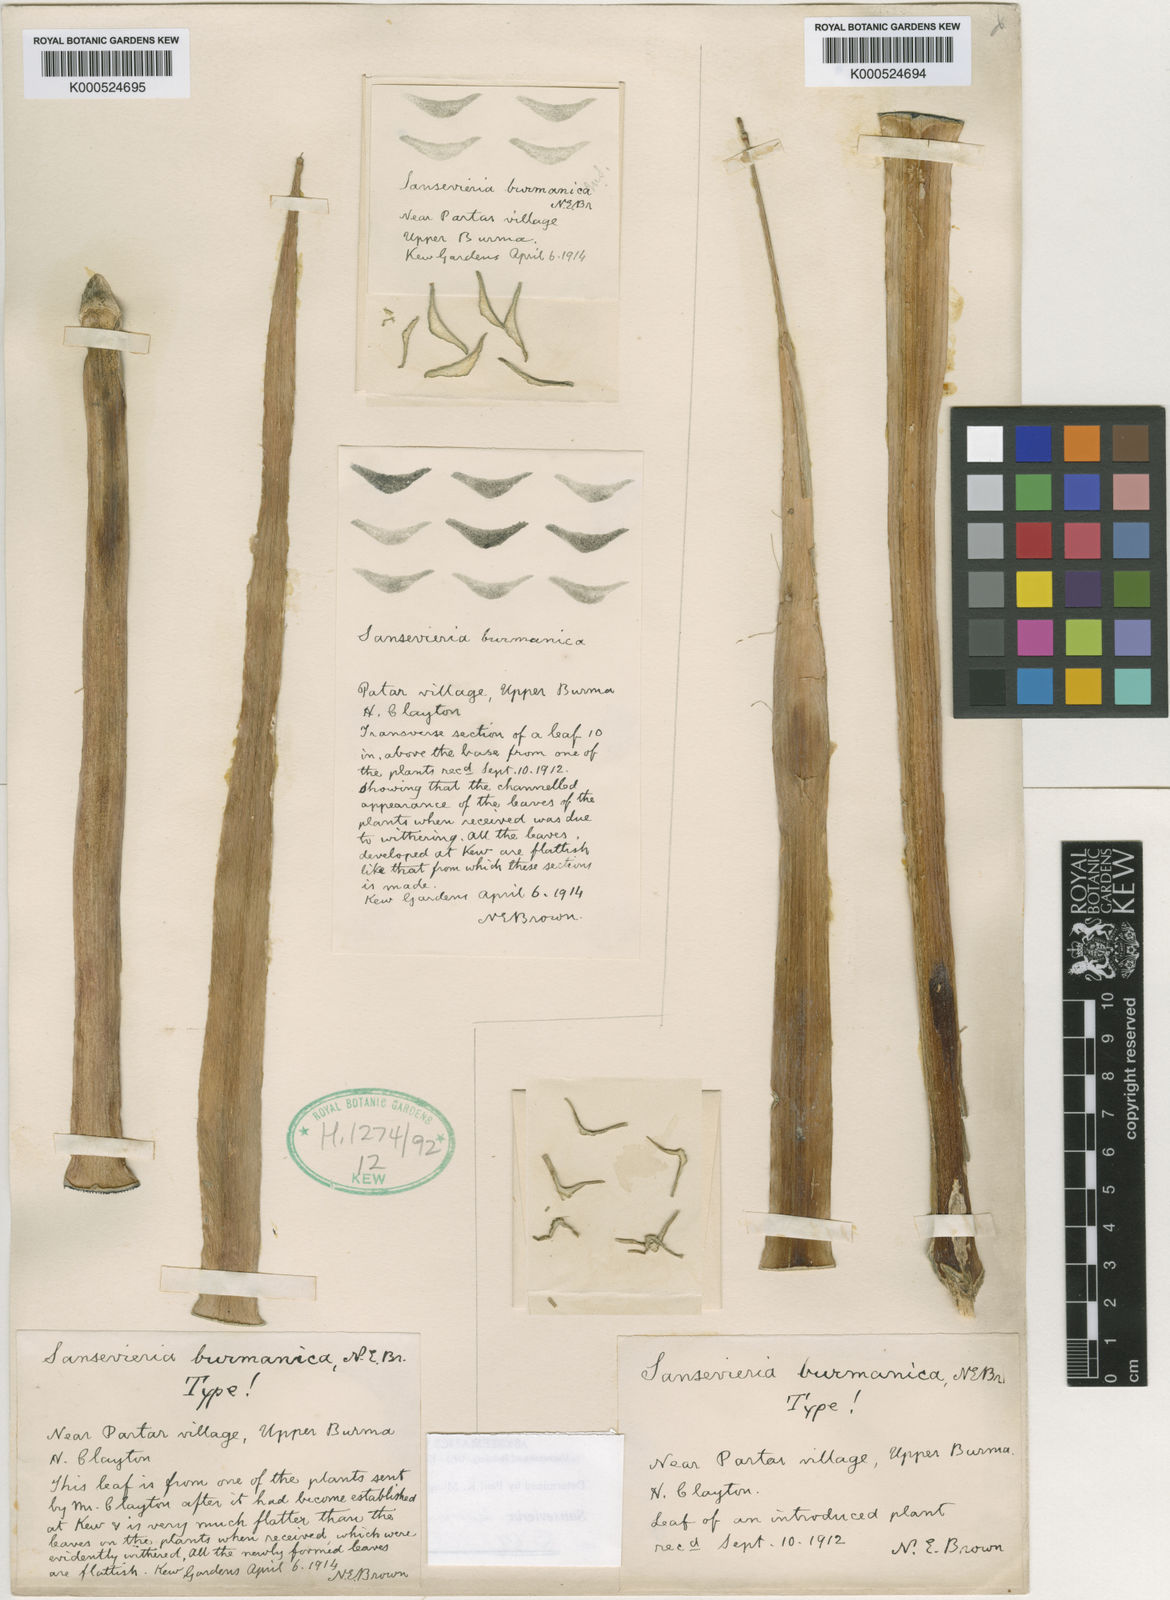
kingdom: Plantae
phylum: Tracheophyta
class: Liliopsida
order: Asparagales
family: Asparagaceae
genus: Dracaena
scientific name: Dracaena burmanica
